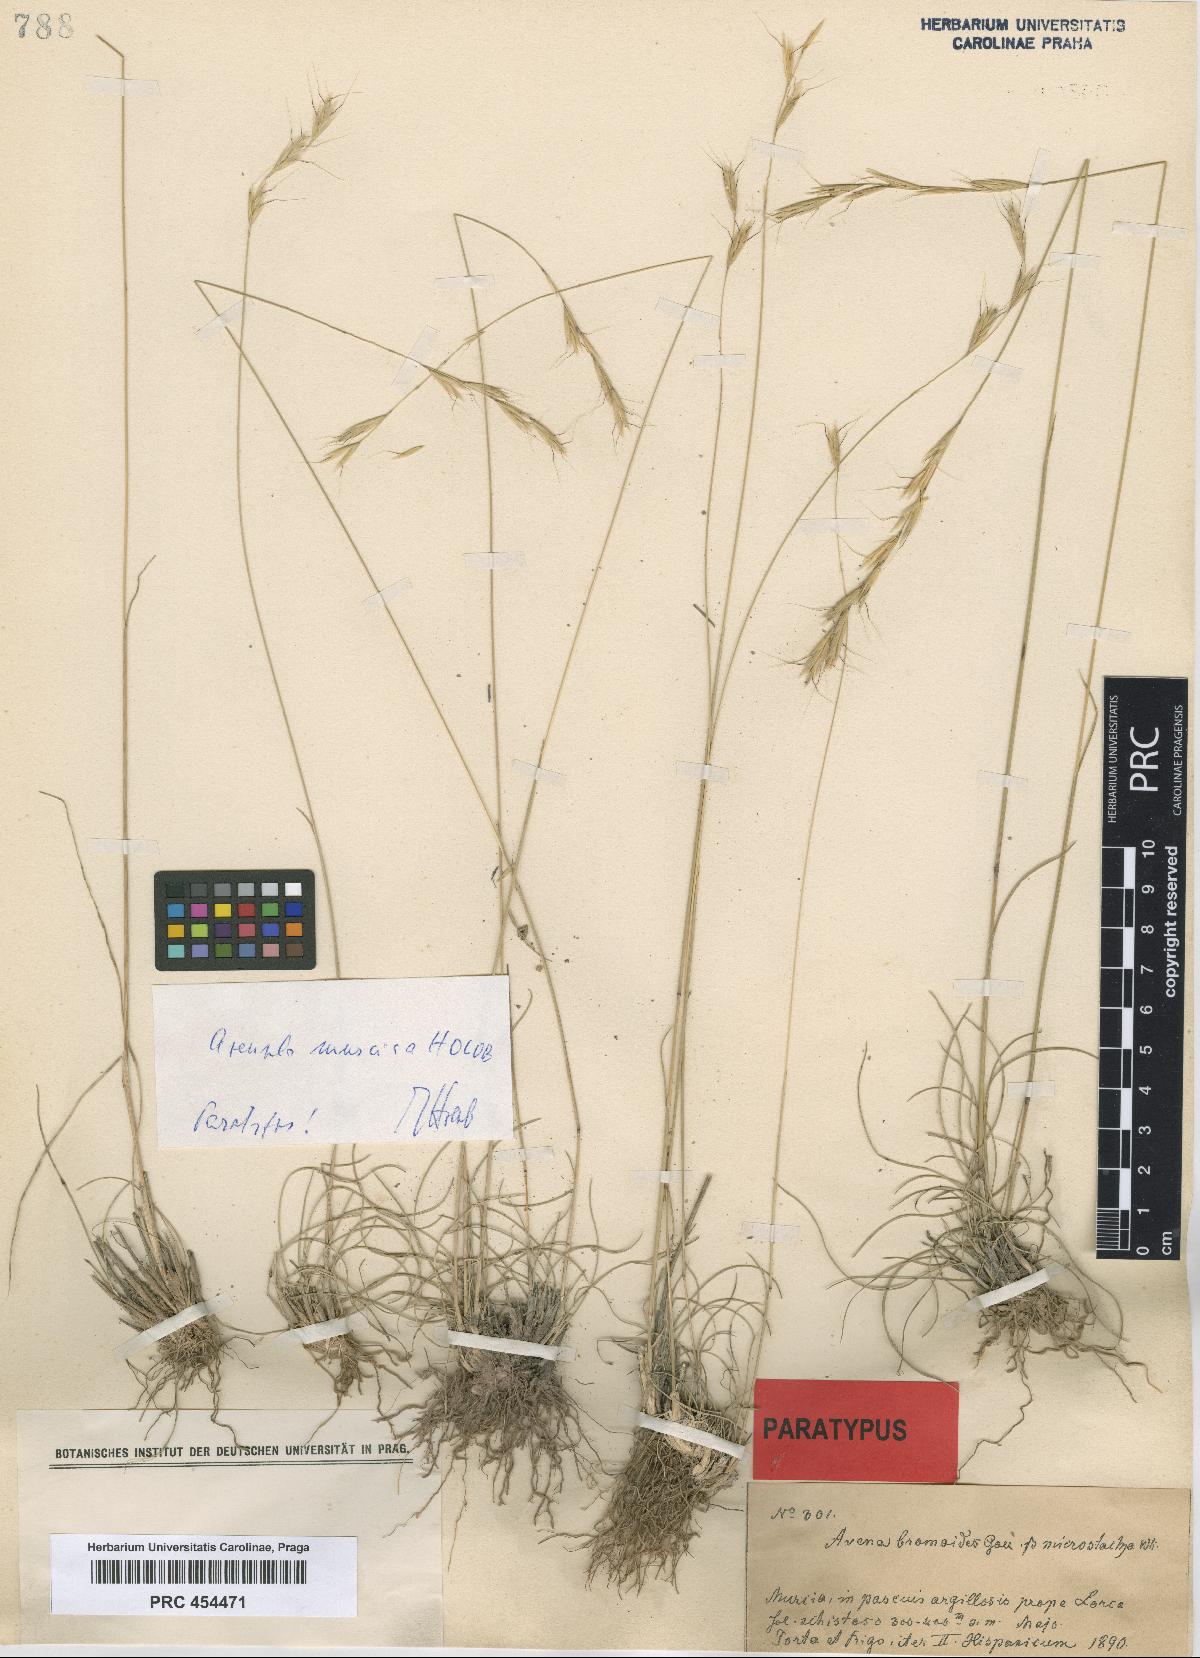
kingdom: Plantae
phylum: Tracheophyta
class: Liliopsida
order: Poales
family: Poaceae
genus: Helictochloa
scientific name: Helictochloa murcica
